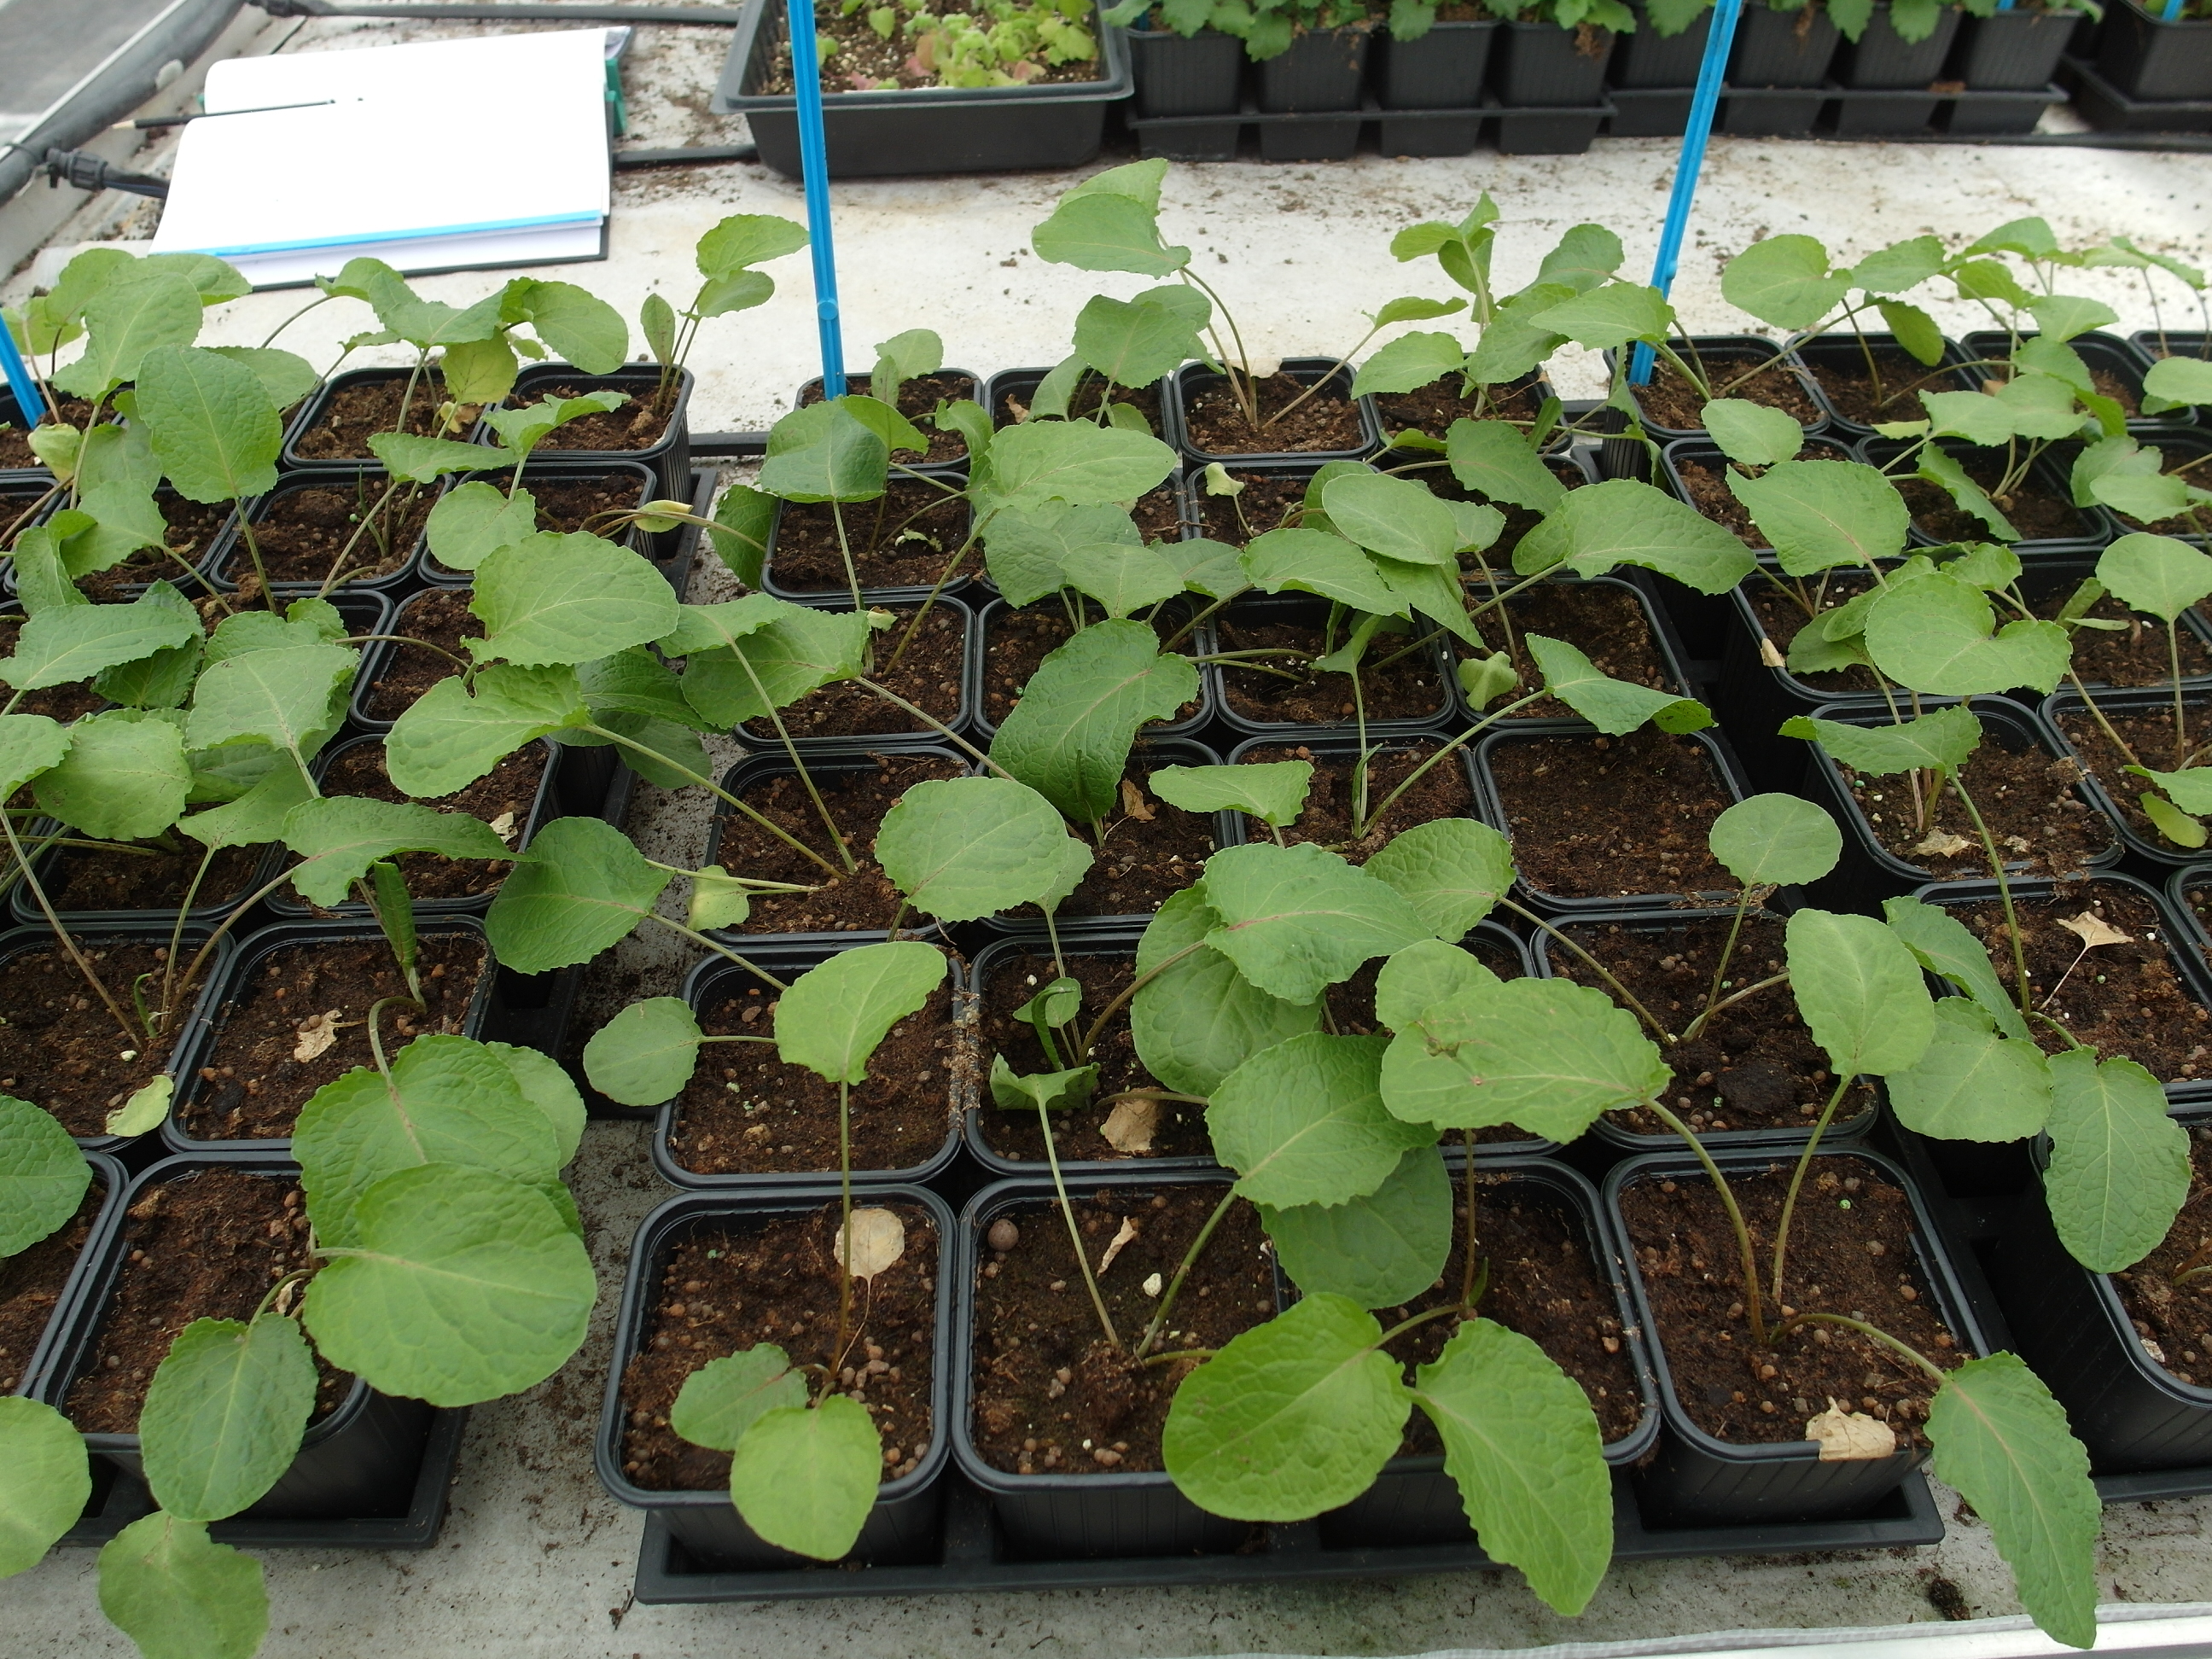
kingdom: Plantae
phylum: Tracheophyta
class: Magnoliopsida
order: Caryophyllales
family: Polygonaceae
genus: Rumex
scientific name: Rumex obtusifolius
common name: Bitter dock
